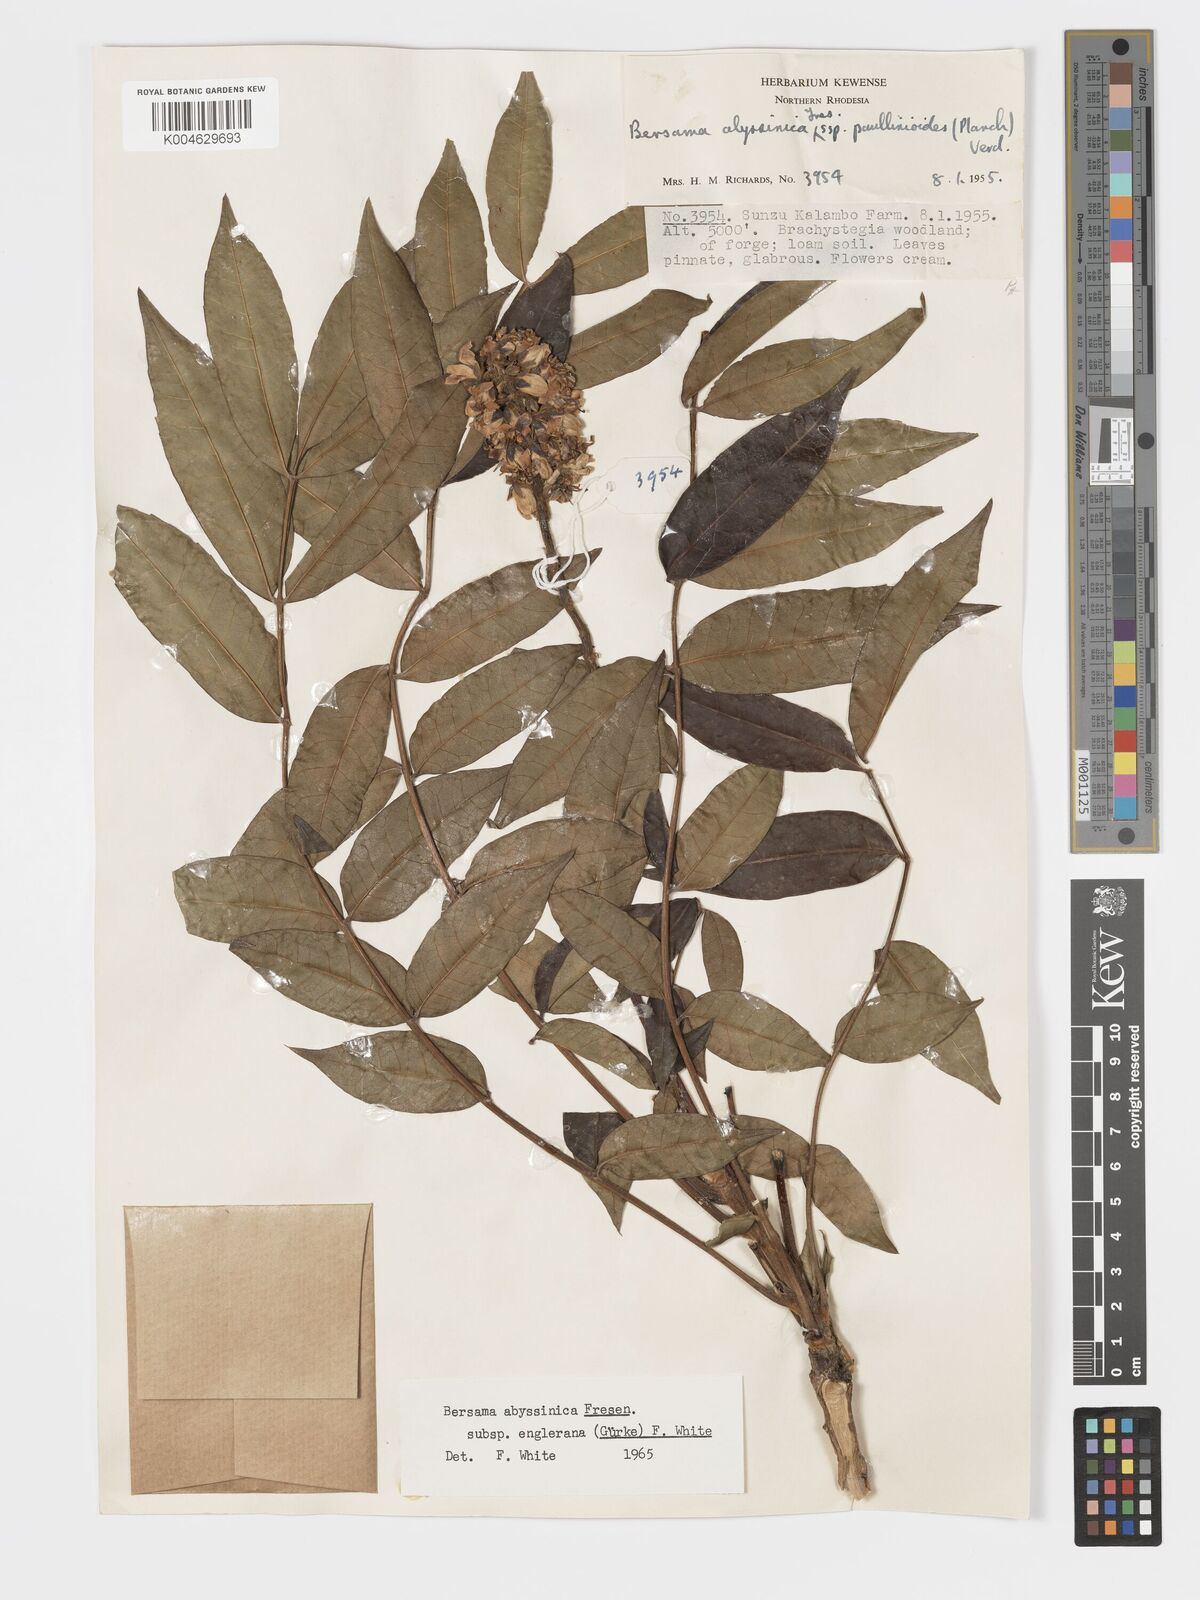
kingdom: Plantae
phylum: Tracheophyta
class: Magnoliopsida
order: Geraniales
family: Melianthaceae
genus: Bersama
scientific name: Bersama abyssinica
